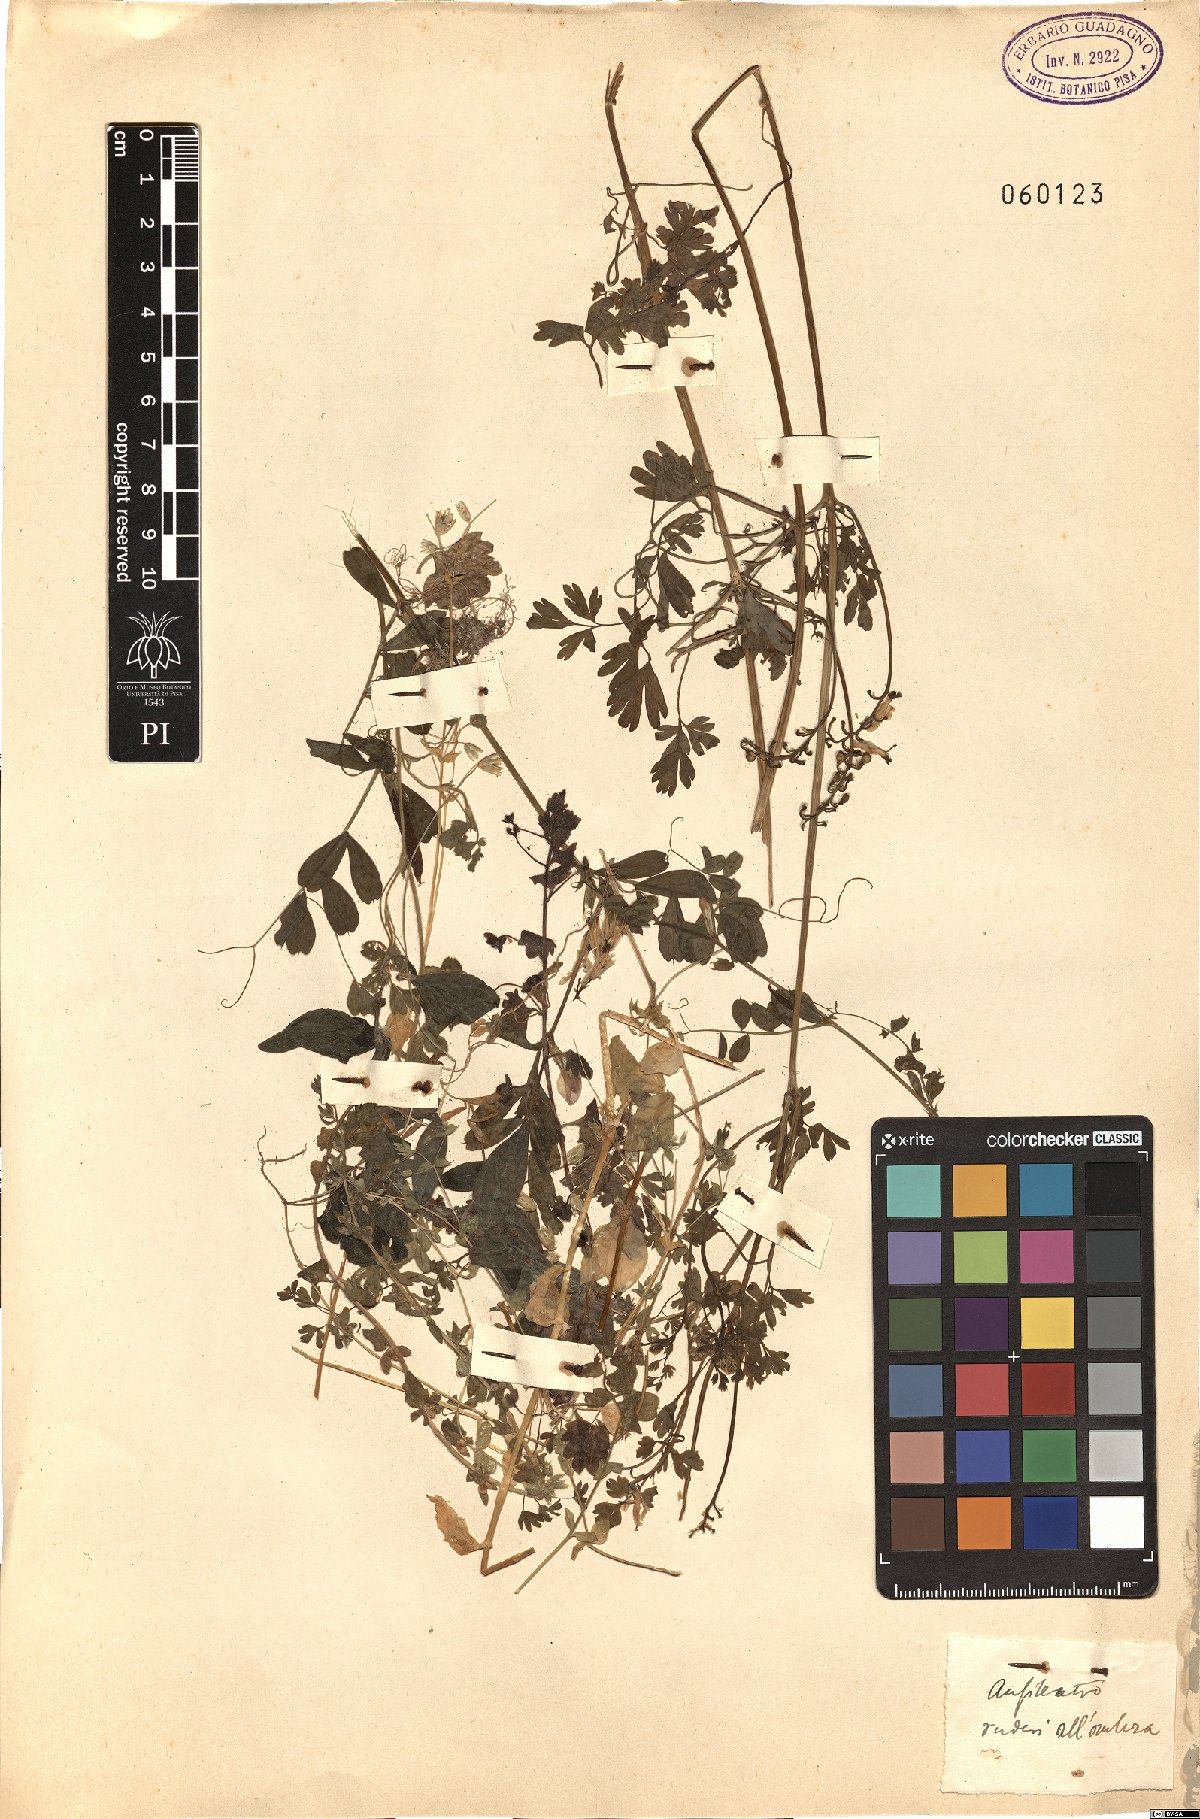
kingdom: Plantae
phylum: Tracheophyta
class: Magnoliopsida
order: Ranunculales
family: Papaveraceae
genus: Fumaria
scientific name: Fumaria capreolata
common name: White ramping-fumitory
